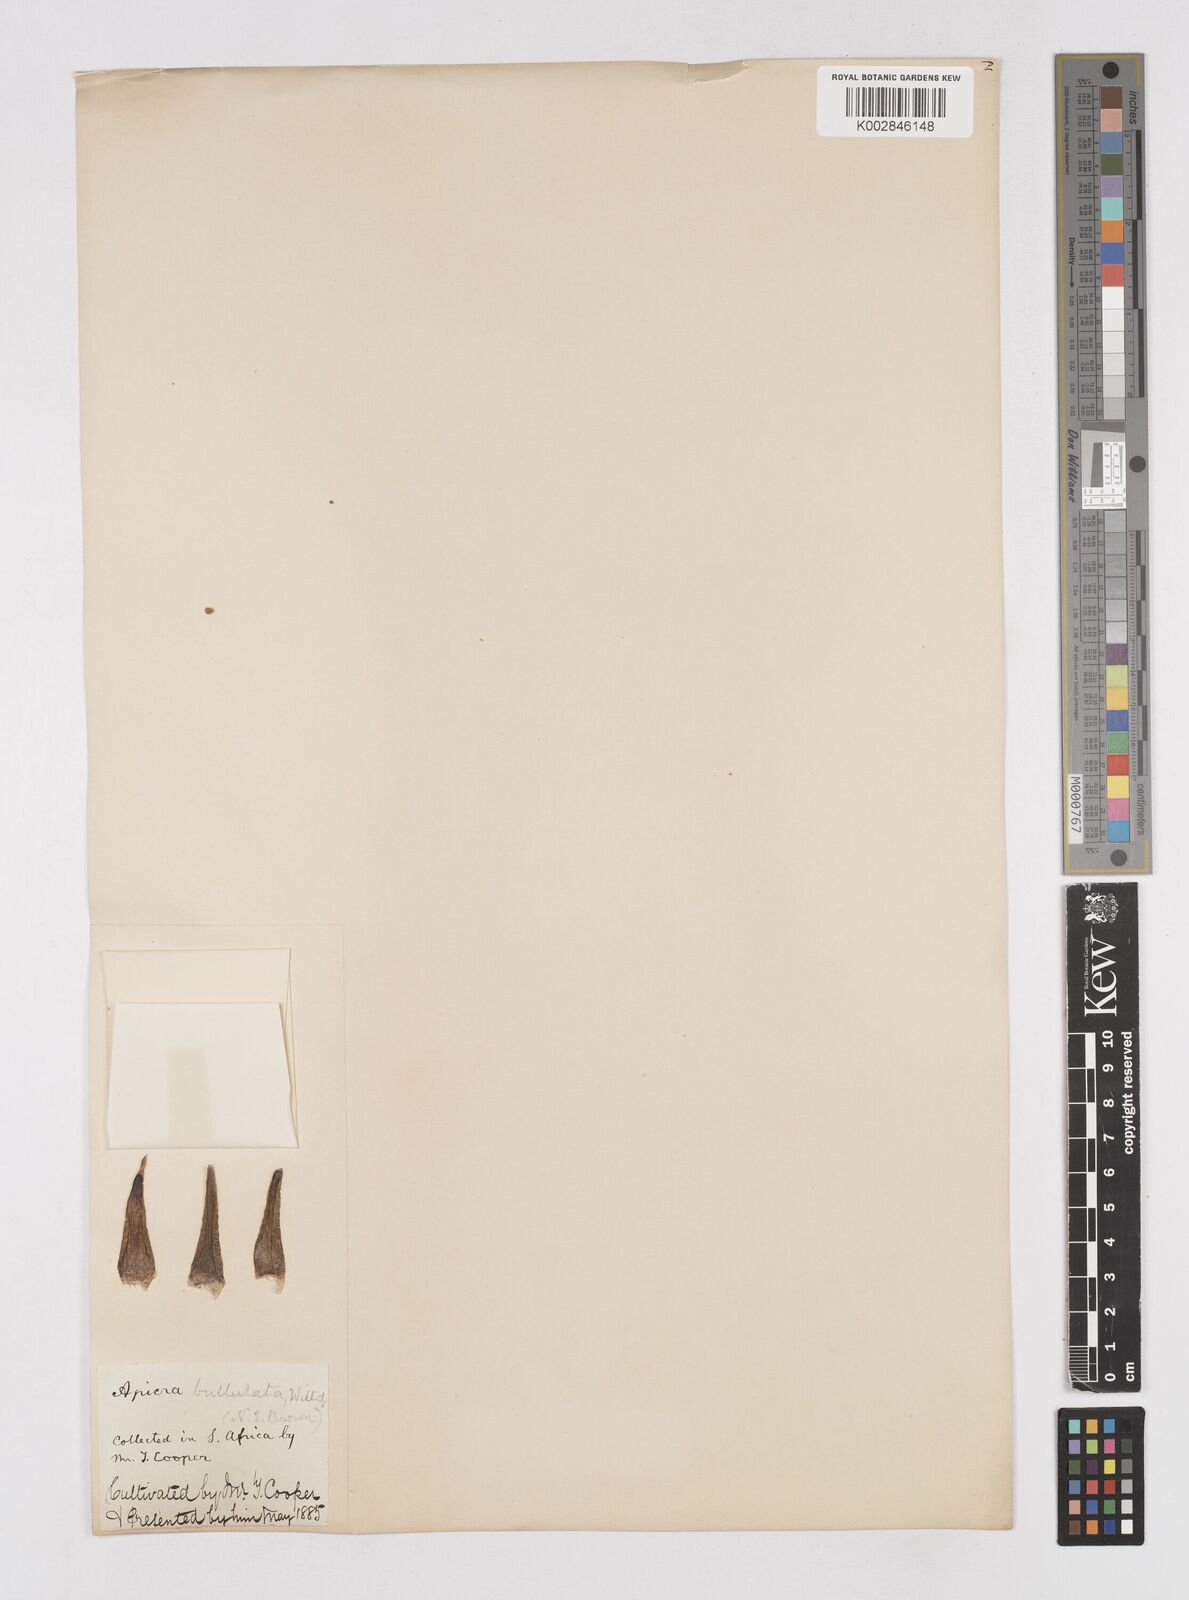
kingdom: Plantae
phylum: Tracheophyta
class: Liliopsida
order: Asparagales
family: Asphodelaceae
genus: Astroloba
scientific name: Astroloba bullulata
